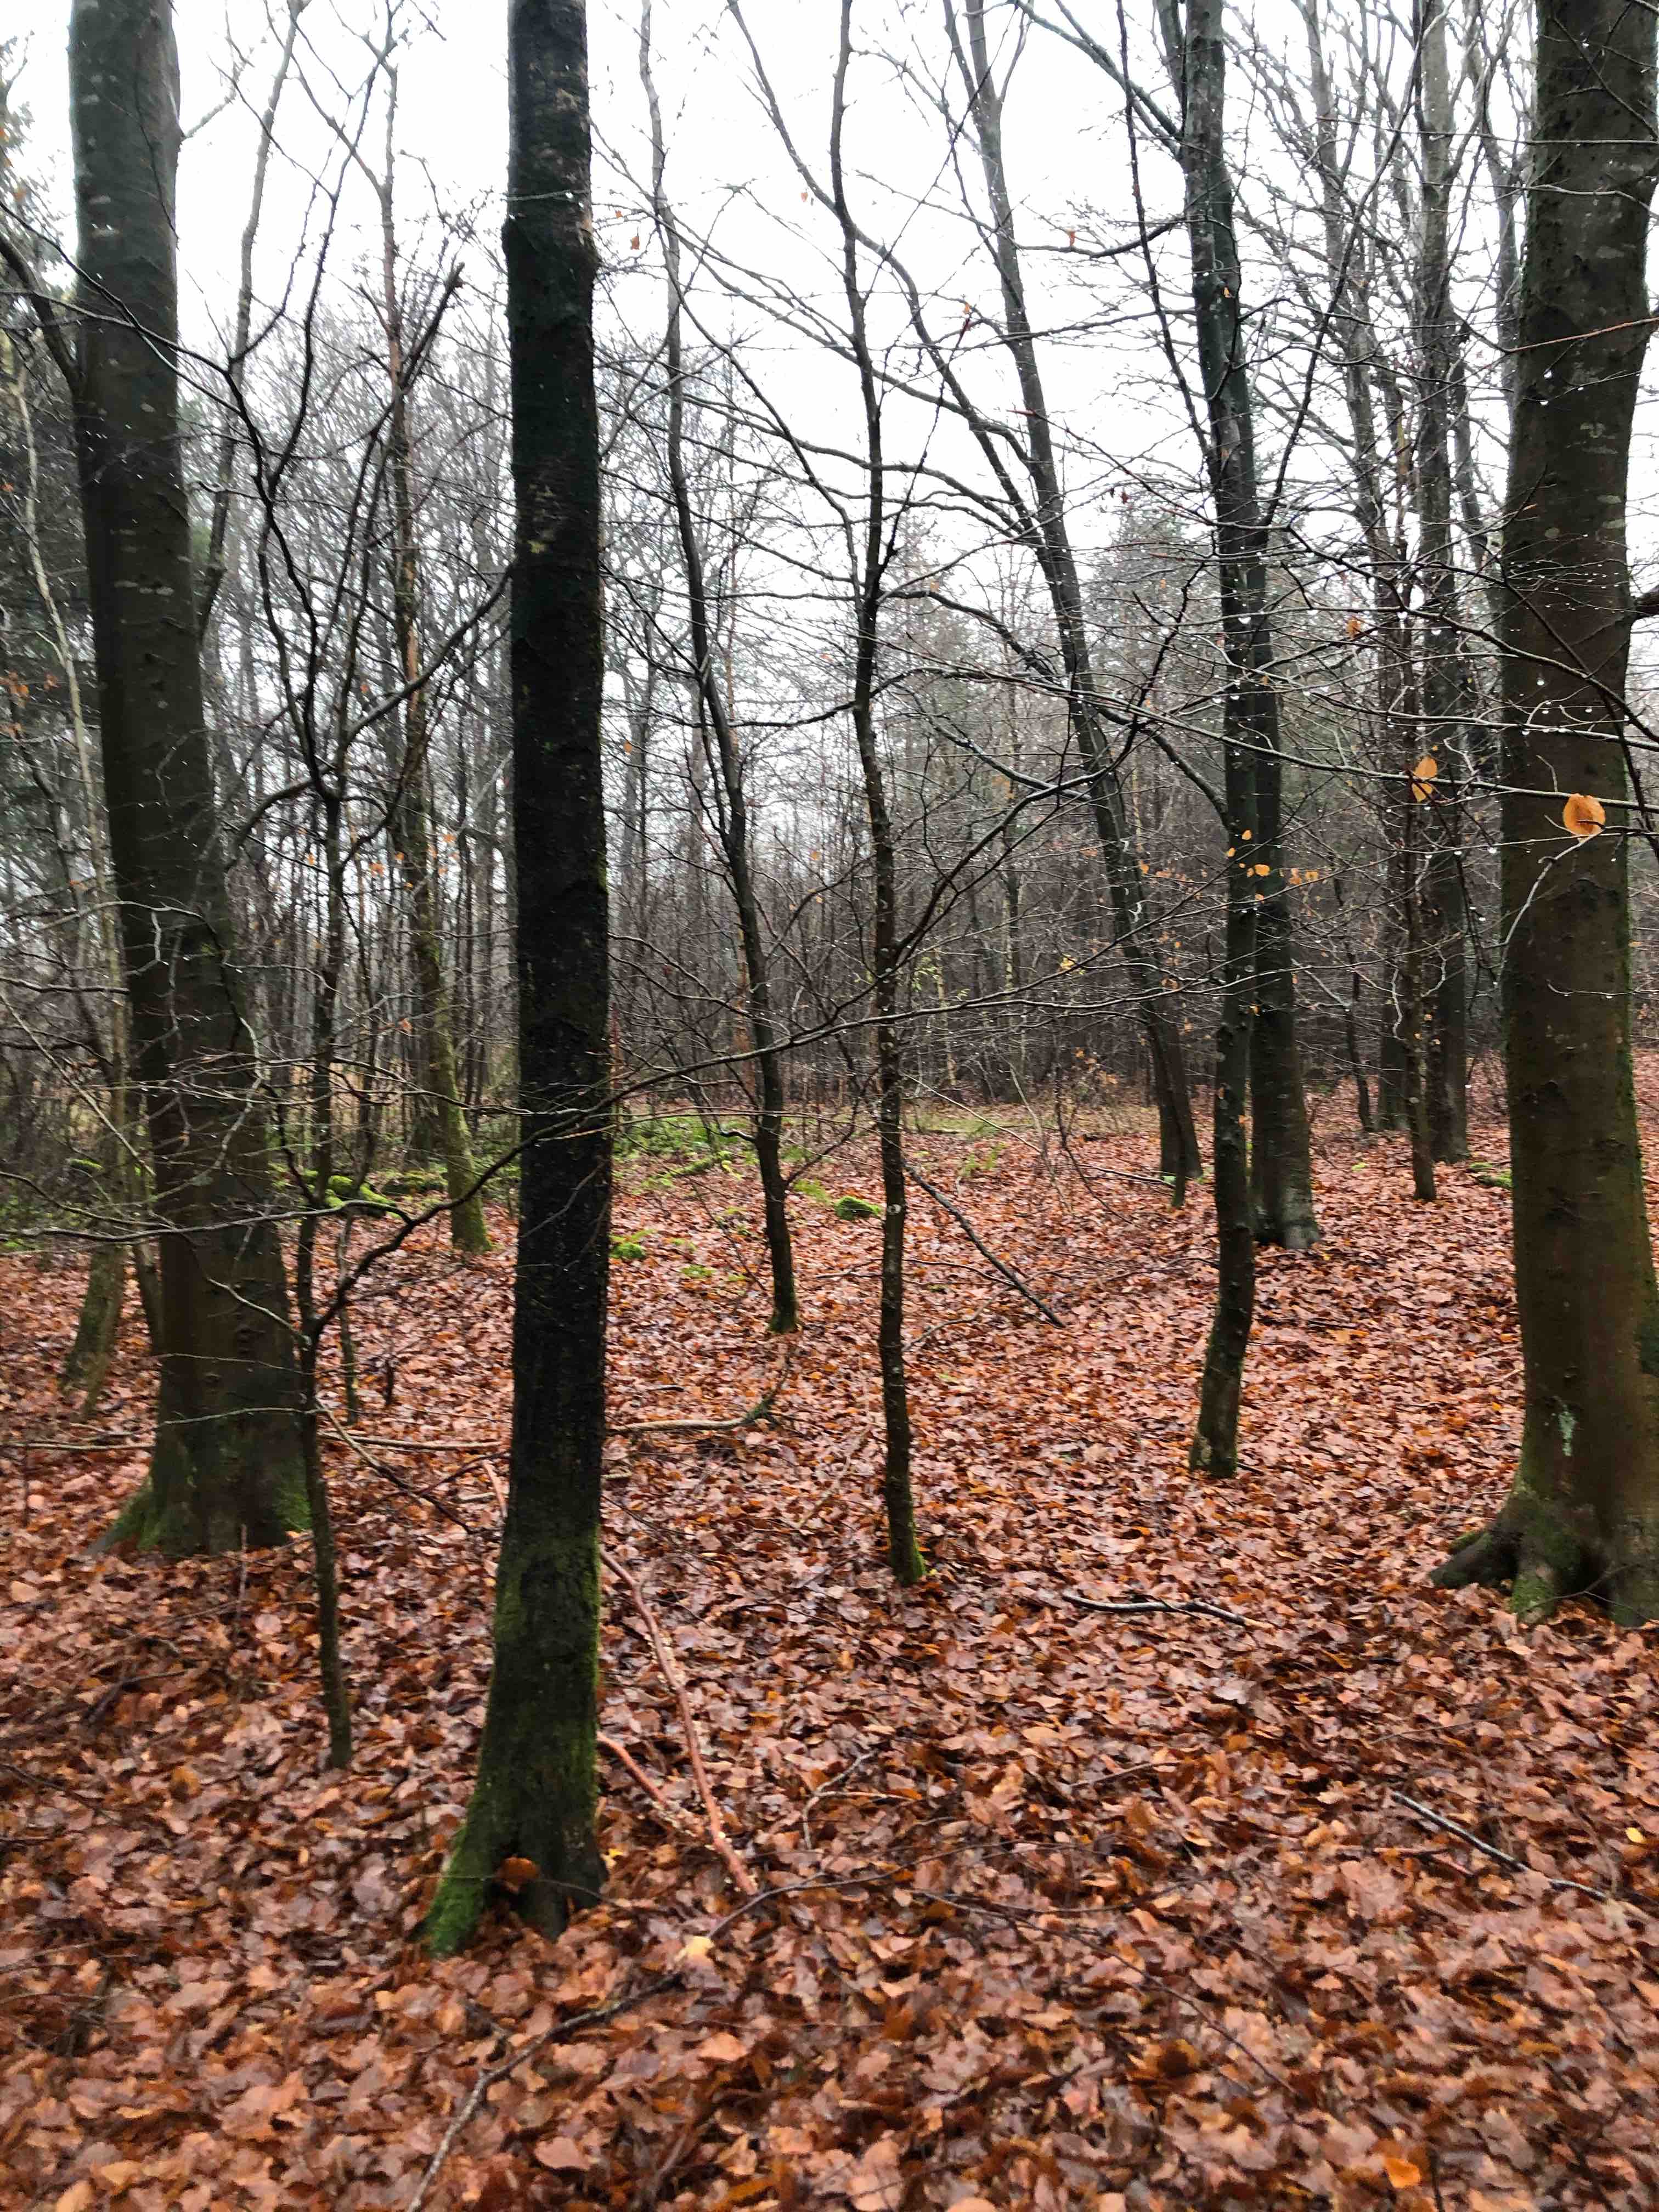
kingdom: Fungi
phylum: Basidiomycota
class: Agaricomycetes
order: Polyporales
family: Polyporaceae
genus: Trametes
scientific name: Trametes versicolor
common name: broget læderporesvamp
